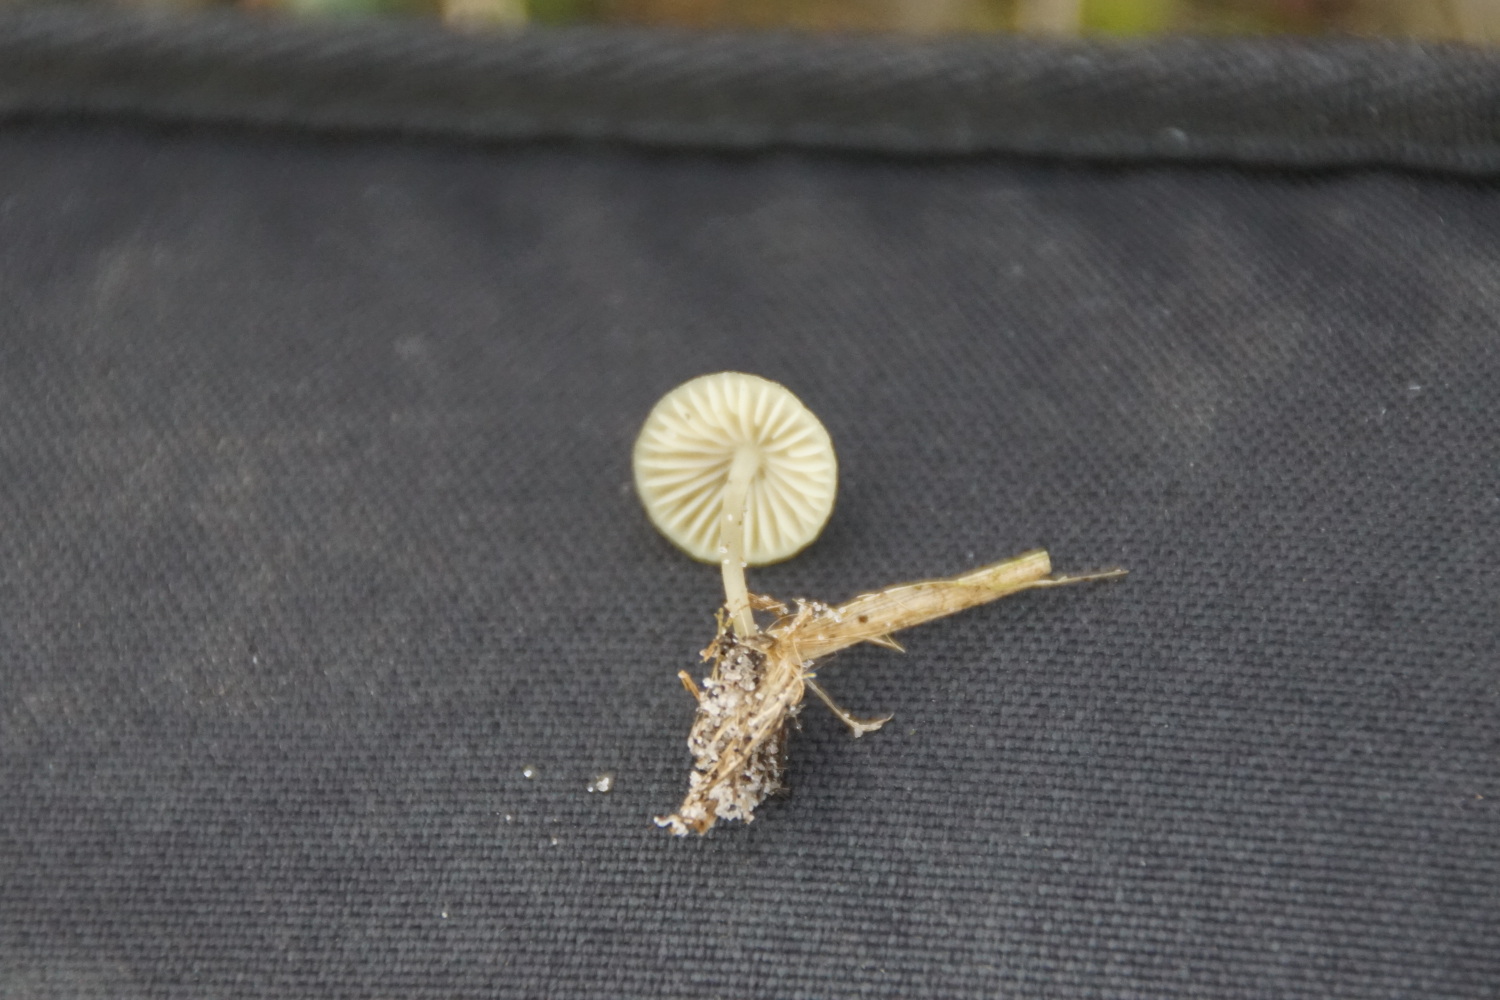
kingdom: Fungi
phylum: Basidiomycota
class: Agaricomycetes
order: Agaricales
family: Mycenaceae
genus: Mycena
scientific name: Mycena chlorantha
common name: klit-huesvamp
